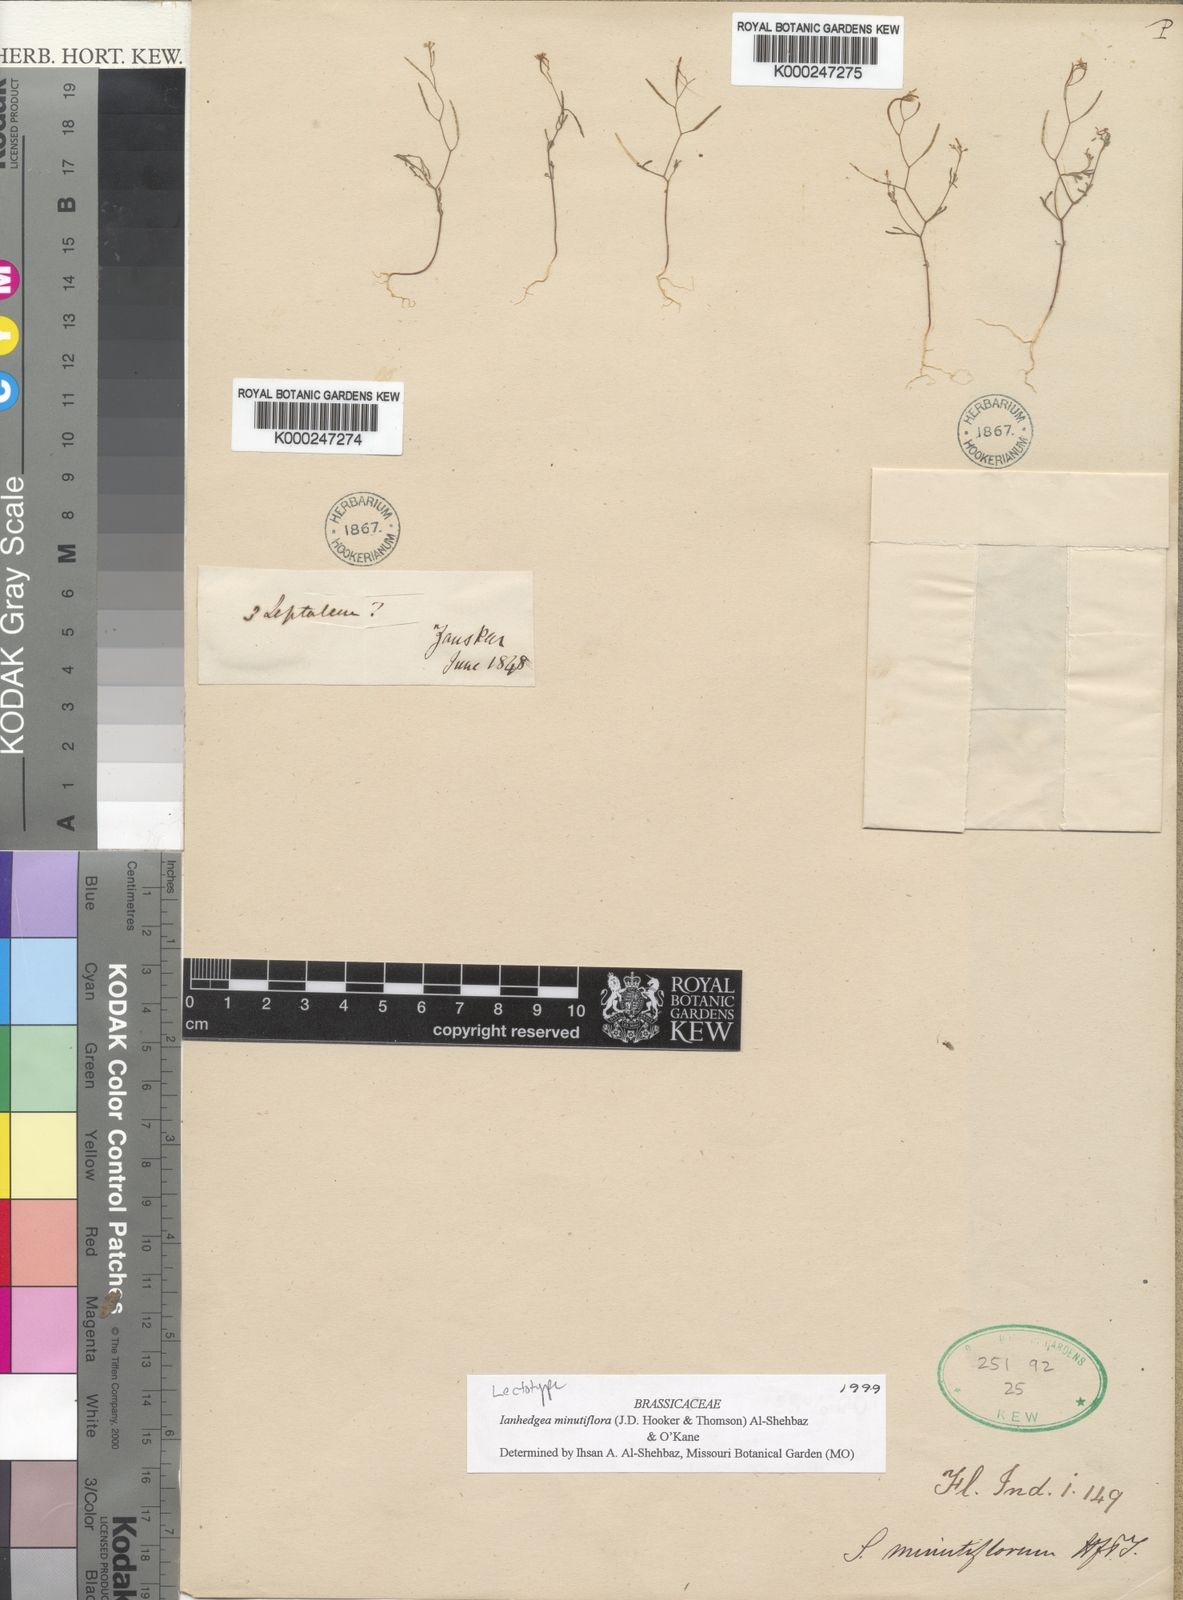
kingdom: Plantae
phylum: Tracheophyta
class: Magnoliopsida
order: Brassicales
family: Brassicaceae
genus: Ianhedgea
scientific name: Ianhedgea minutiflora
